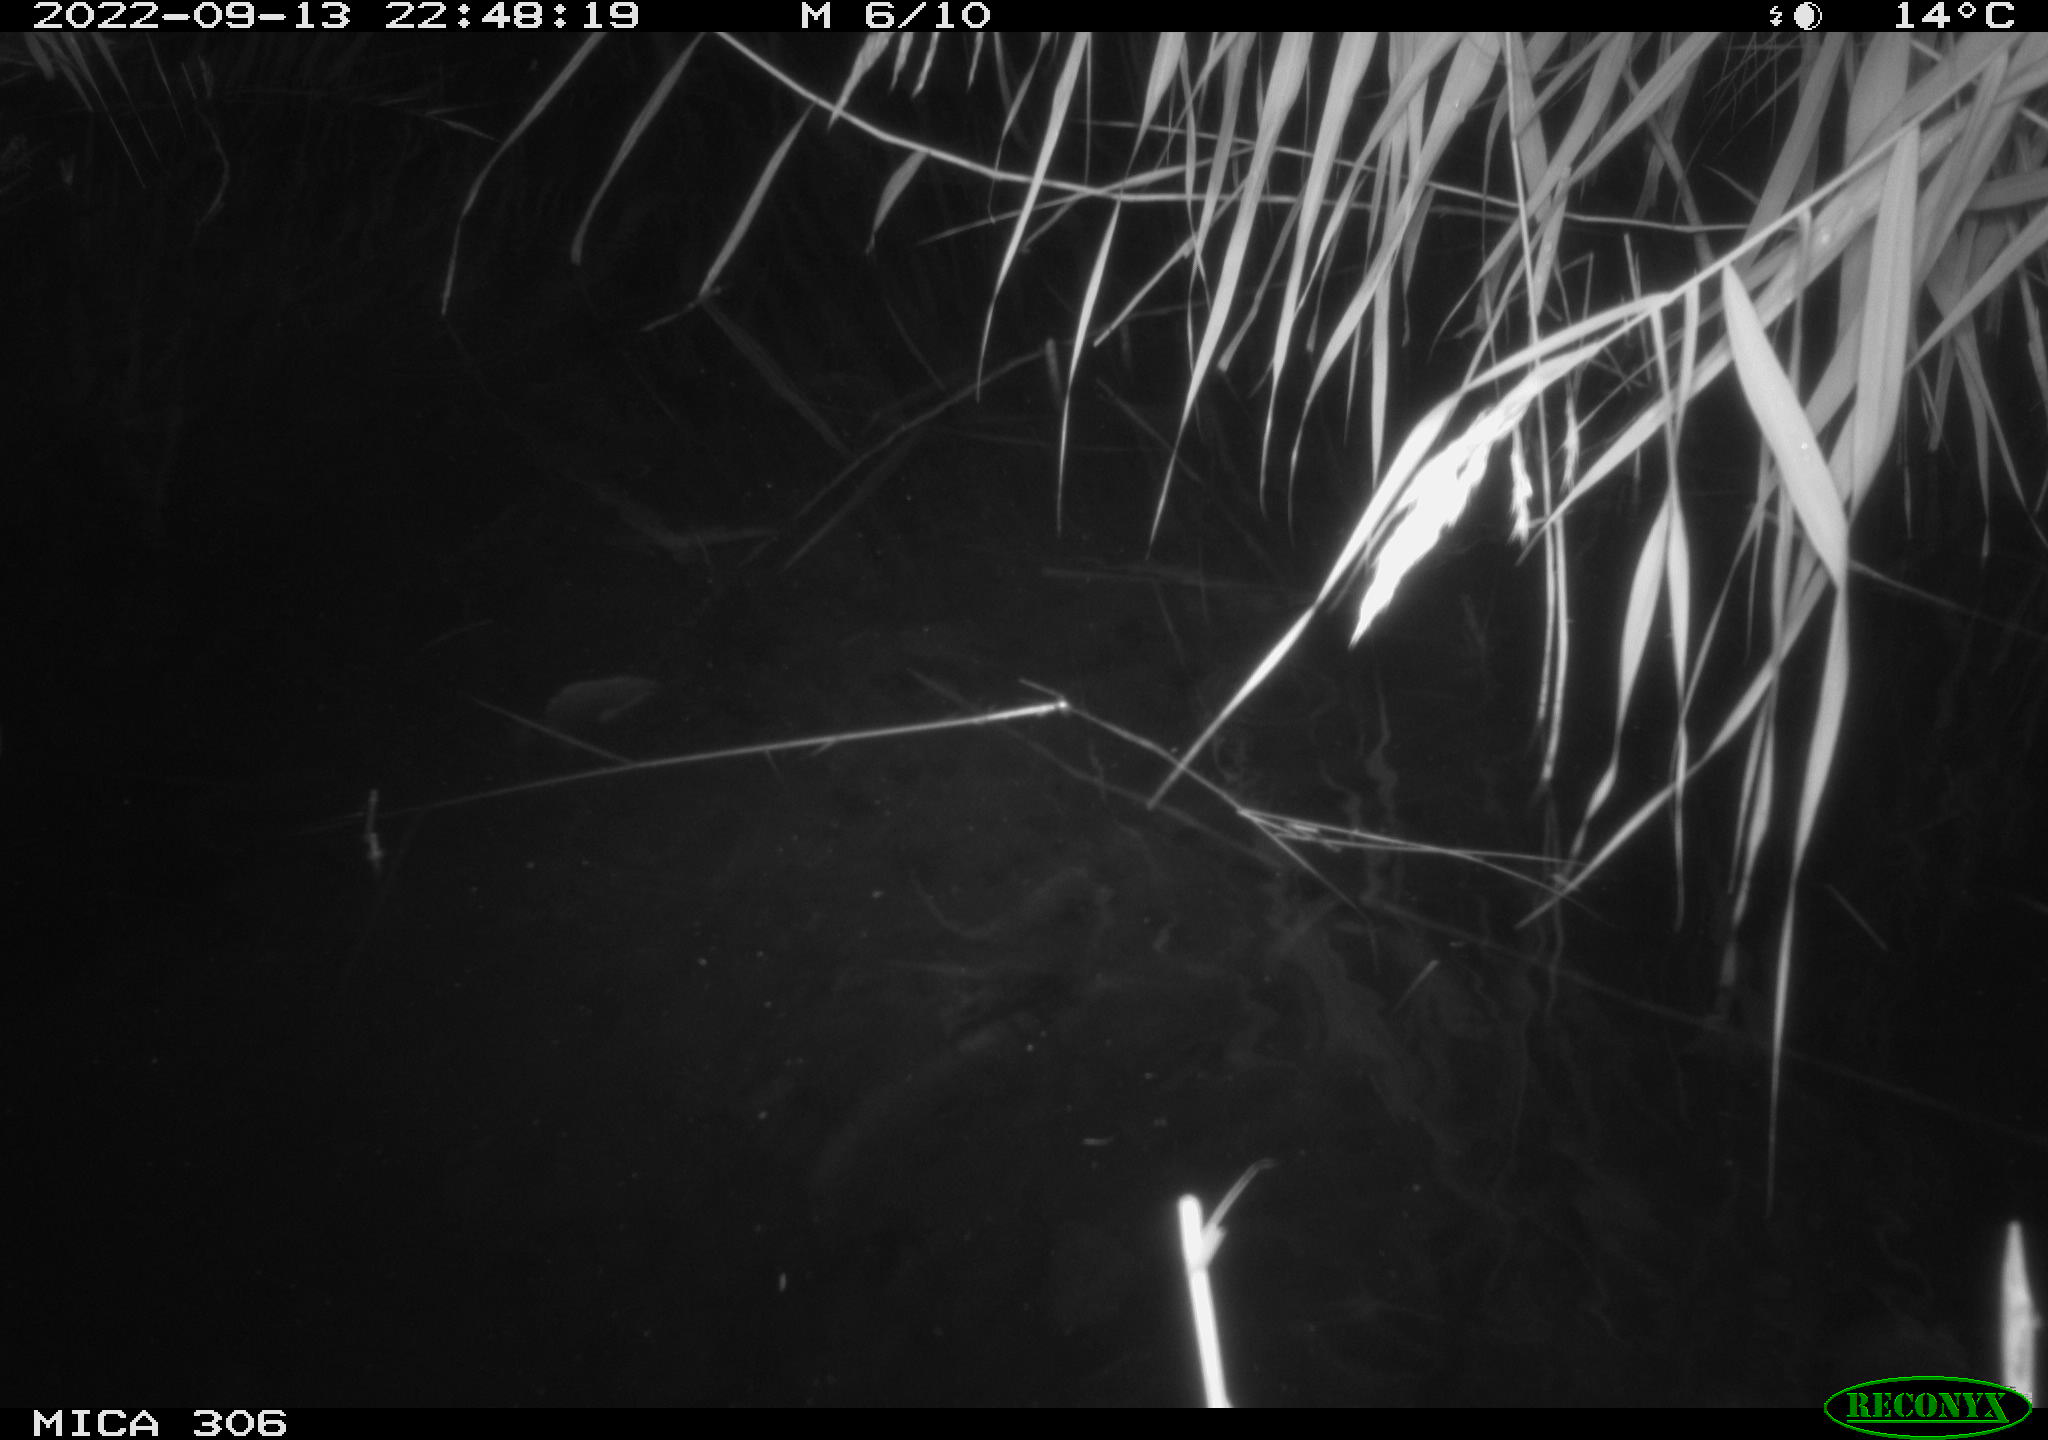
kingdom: Animalia
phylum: Chordata
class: Mammalia
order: Rodentia
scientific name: Rodentia
